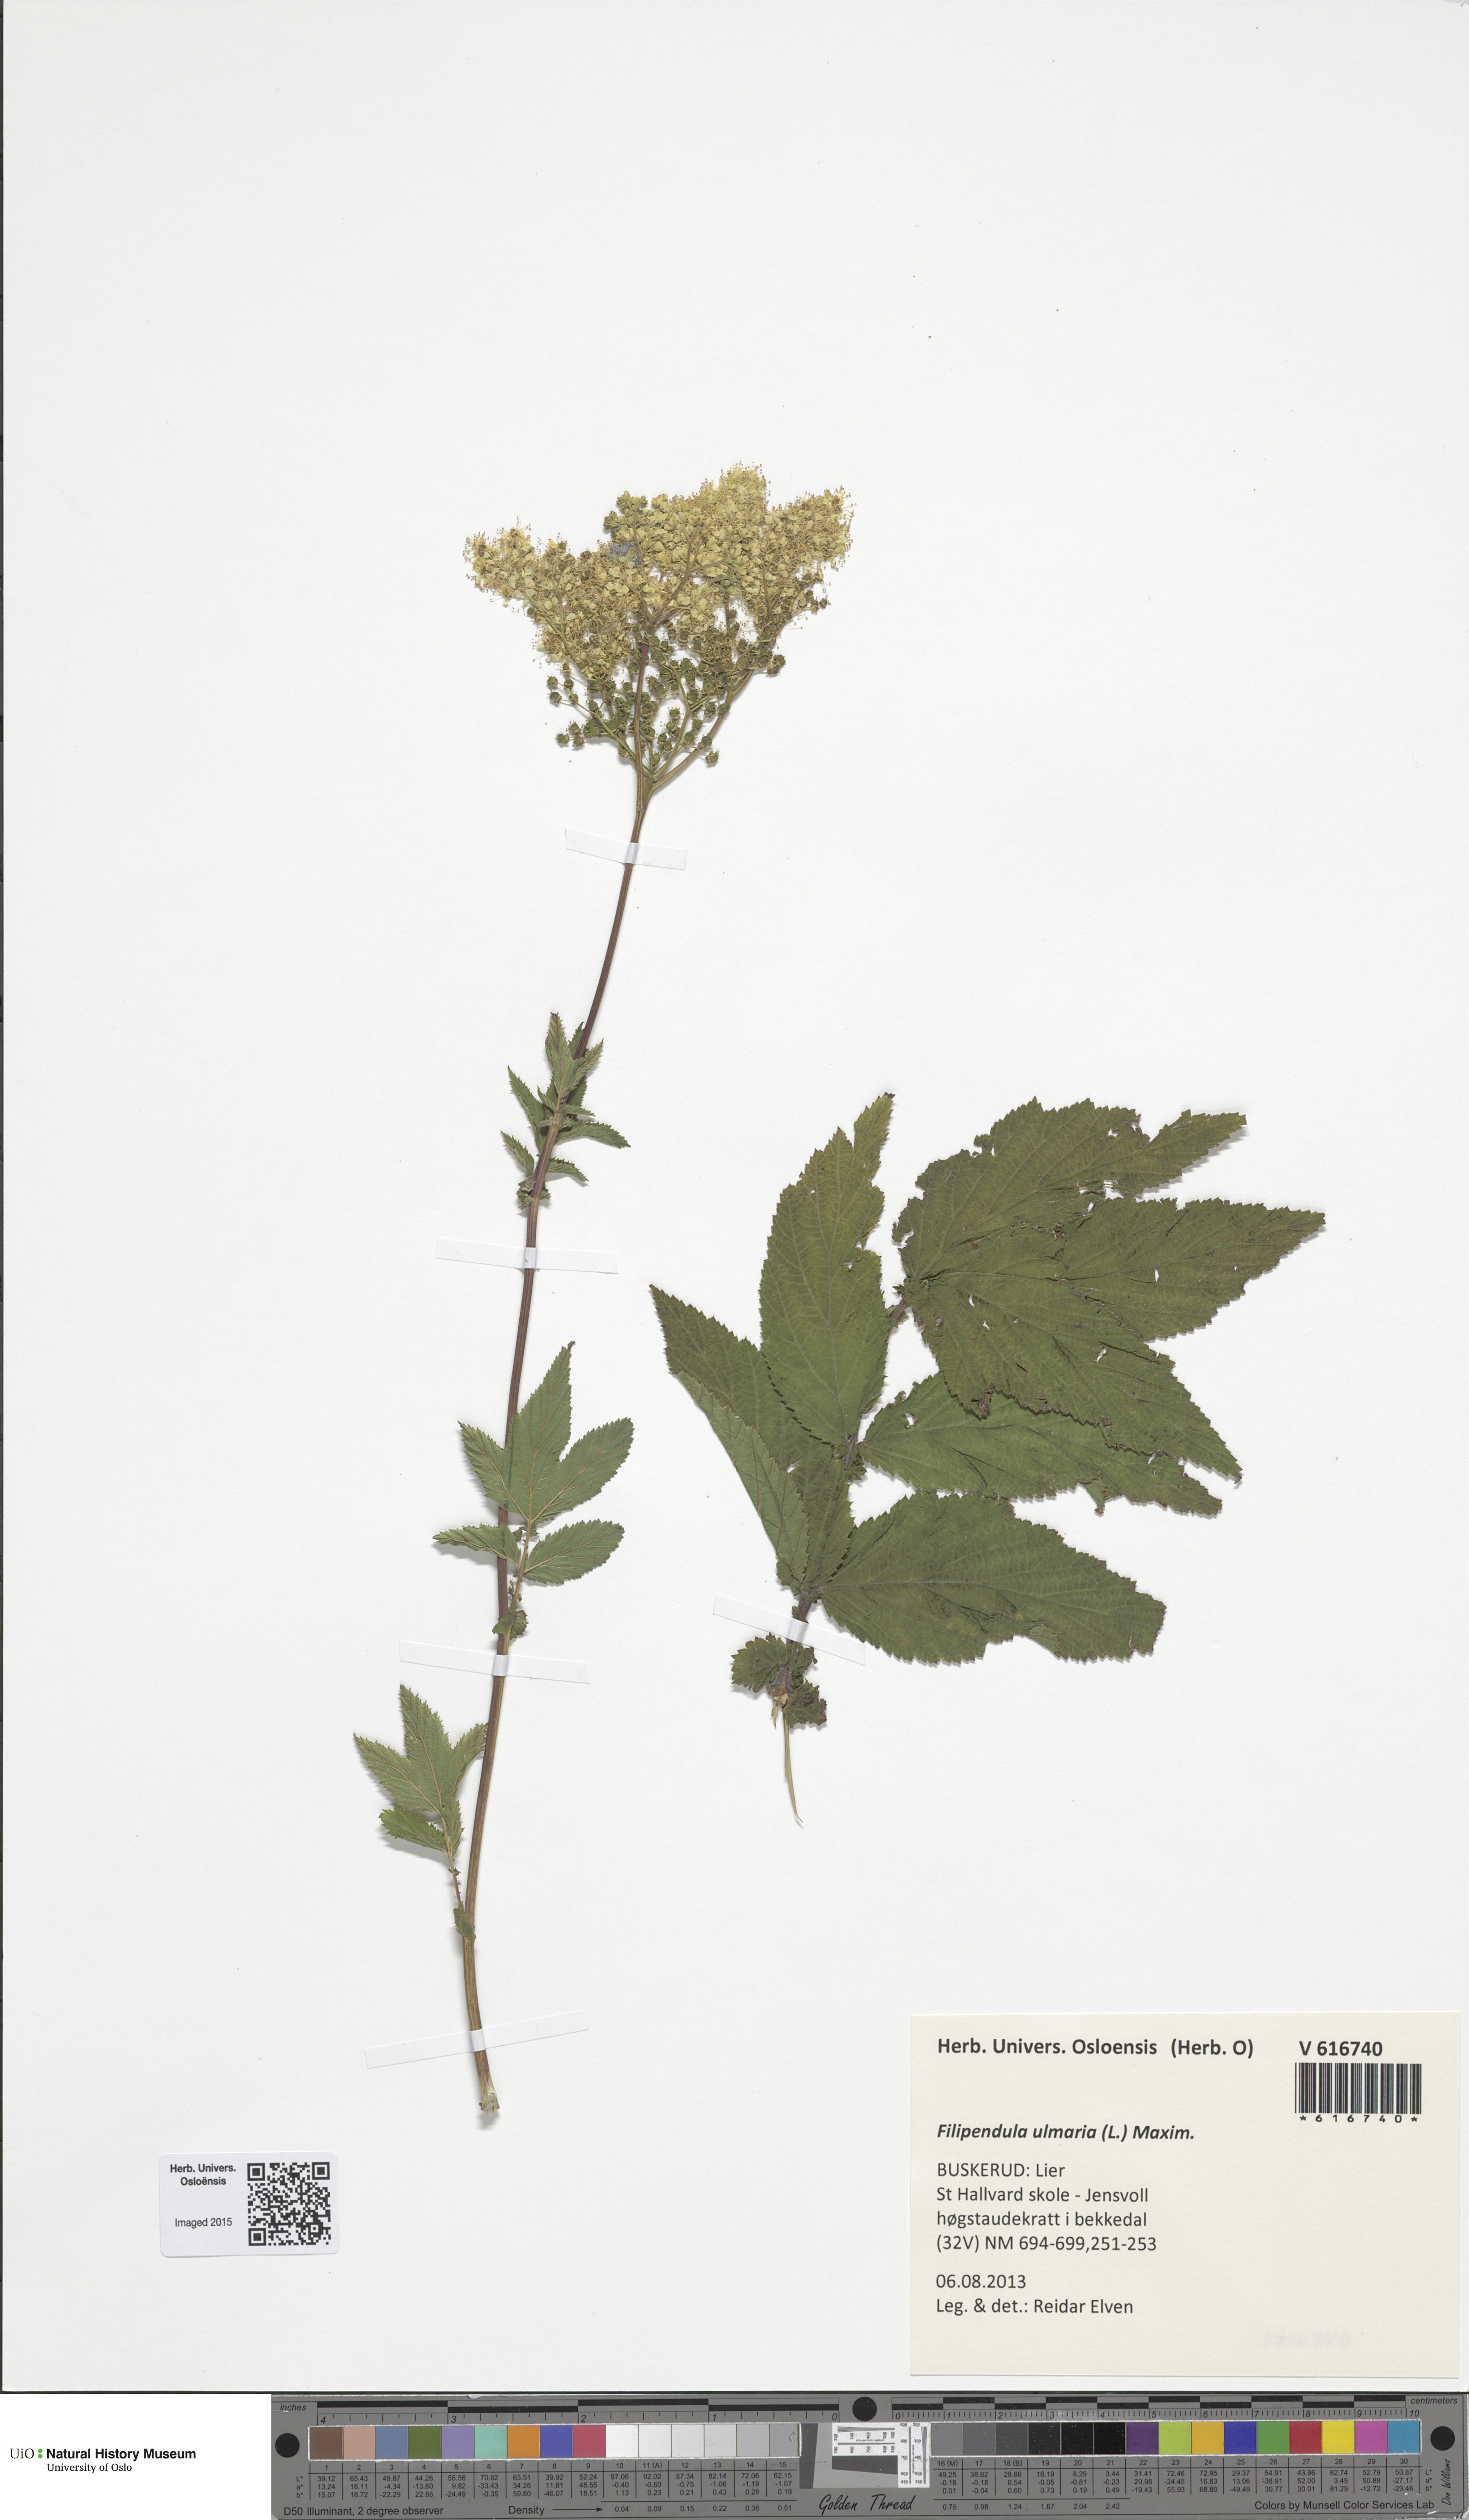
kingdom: Plantae
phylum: Tracheophyta
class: Magnoliopsida
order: Rosales
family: Rosaceae
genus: Filipendula
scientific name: Filipendula ulmaria
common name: Meadowsweet
